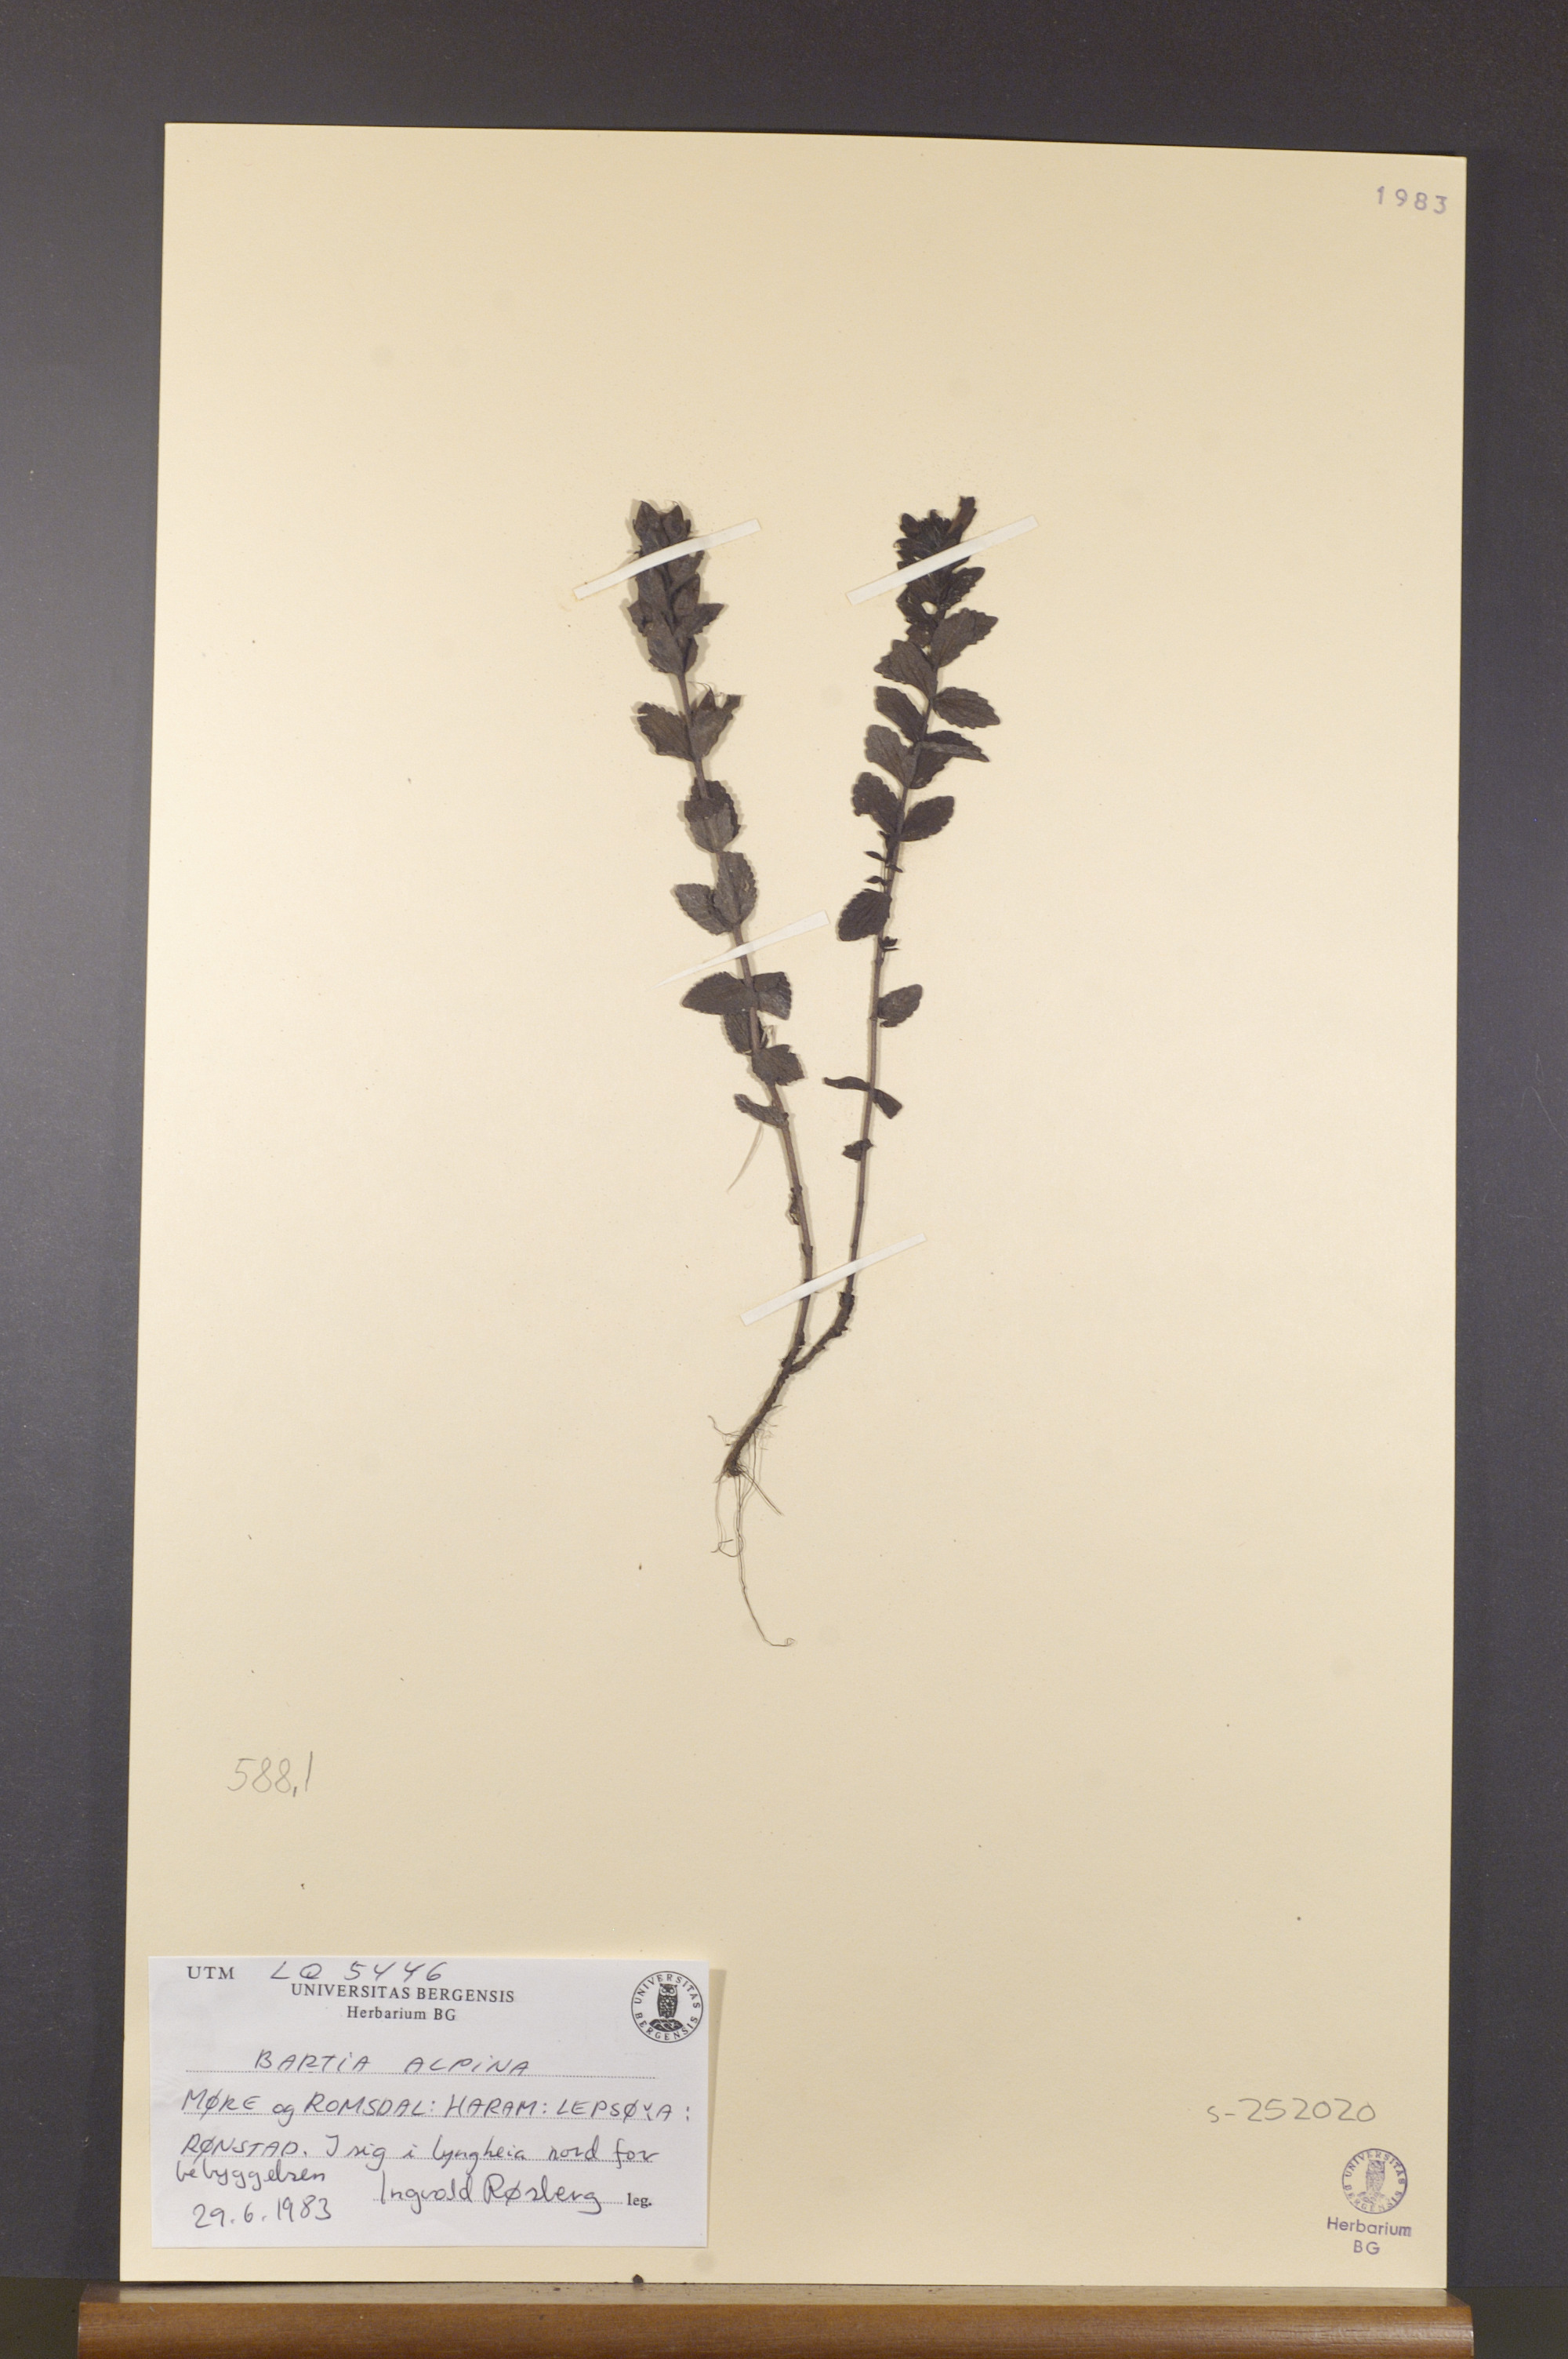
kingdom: Plantae
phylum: Tracheophyta
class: Magnoliopsida
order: Lamiales
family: Orobanchaceae
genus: Bartsia
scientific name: Bartsia alpina
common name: Alpine bartsia
